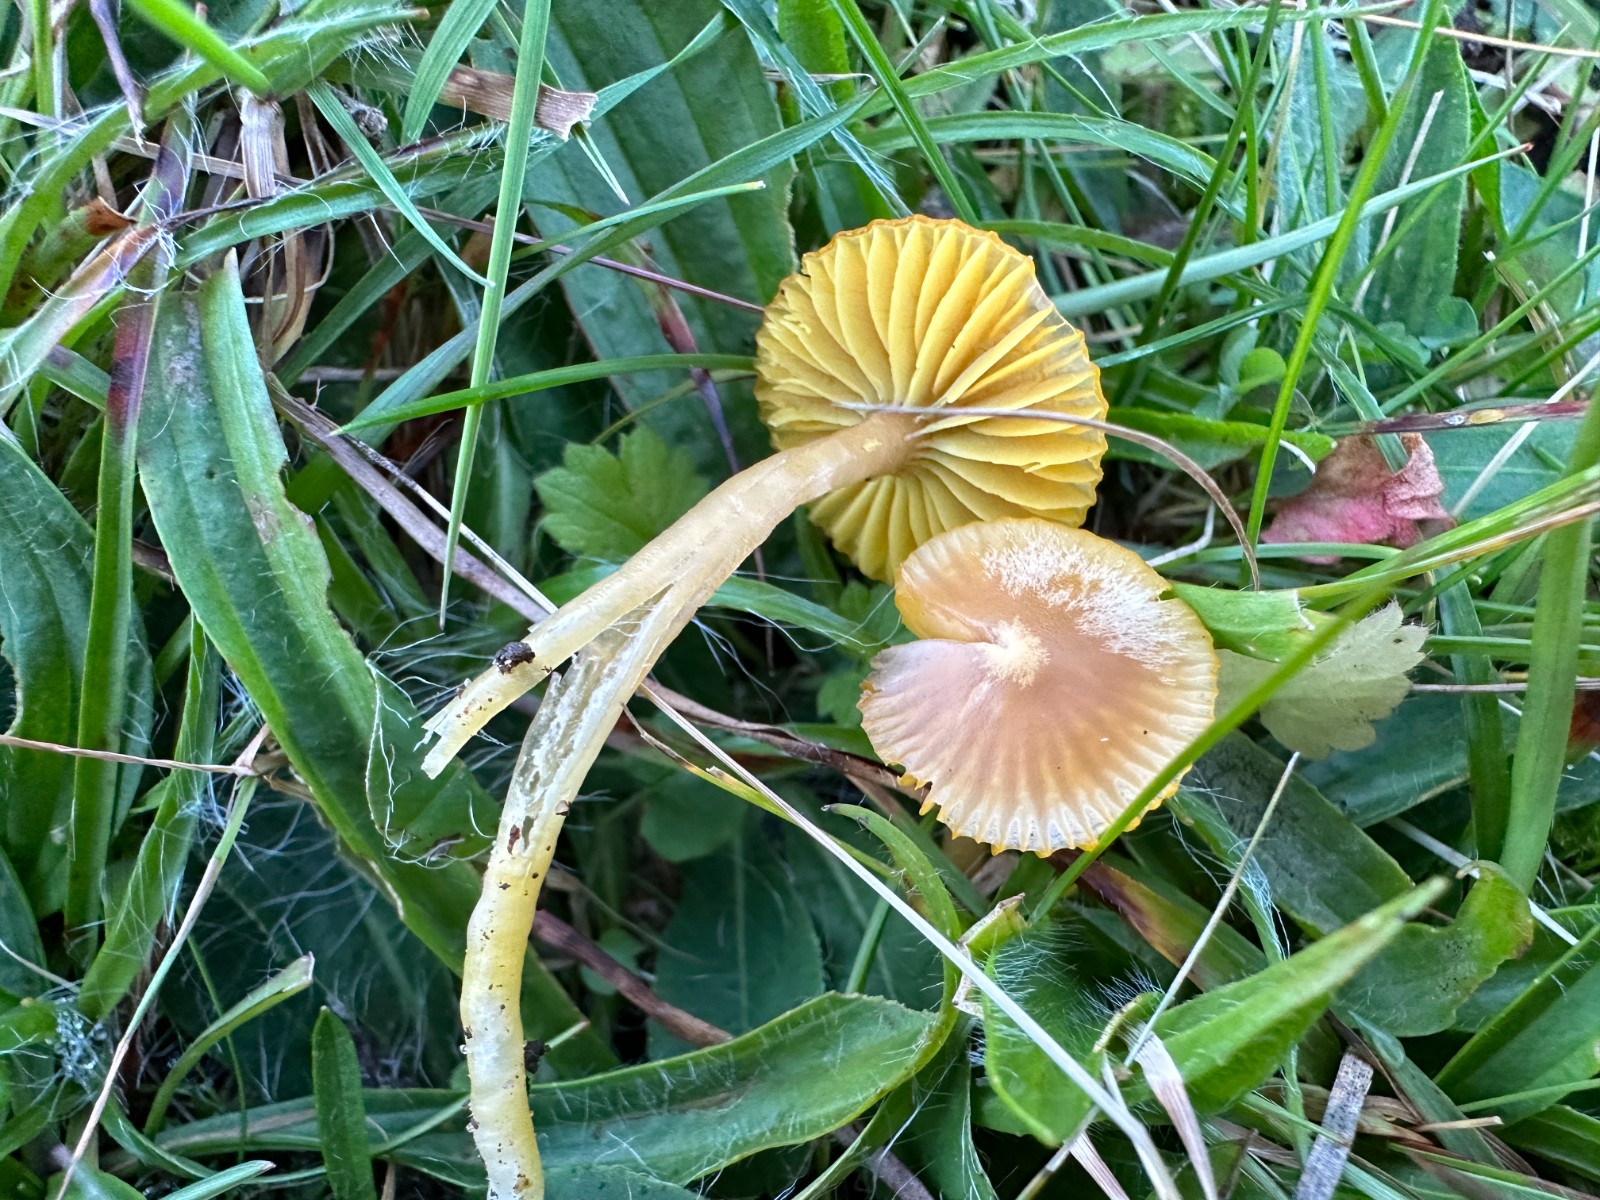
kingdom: Fungi
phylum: Basidiomycota
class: Agaricomycetes
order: Agaricales
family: Hygrophoraceae
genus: Gliophorus
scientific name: Gliophorus psittacinus
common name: papegøje-vokshat
